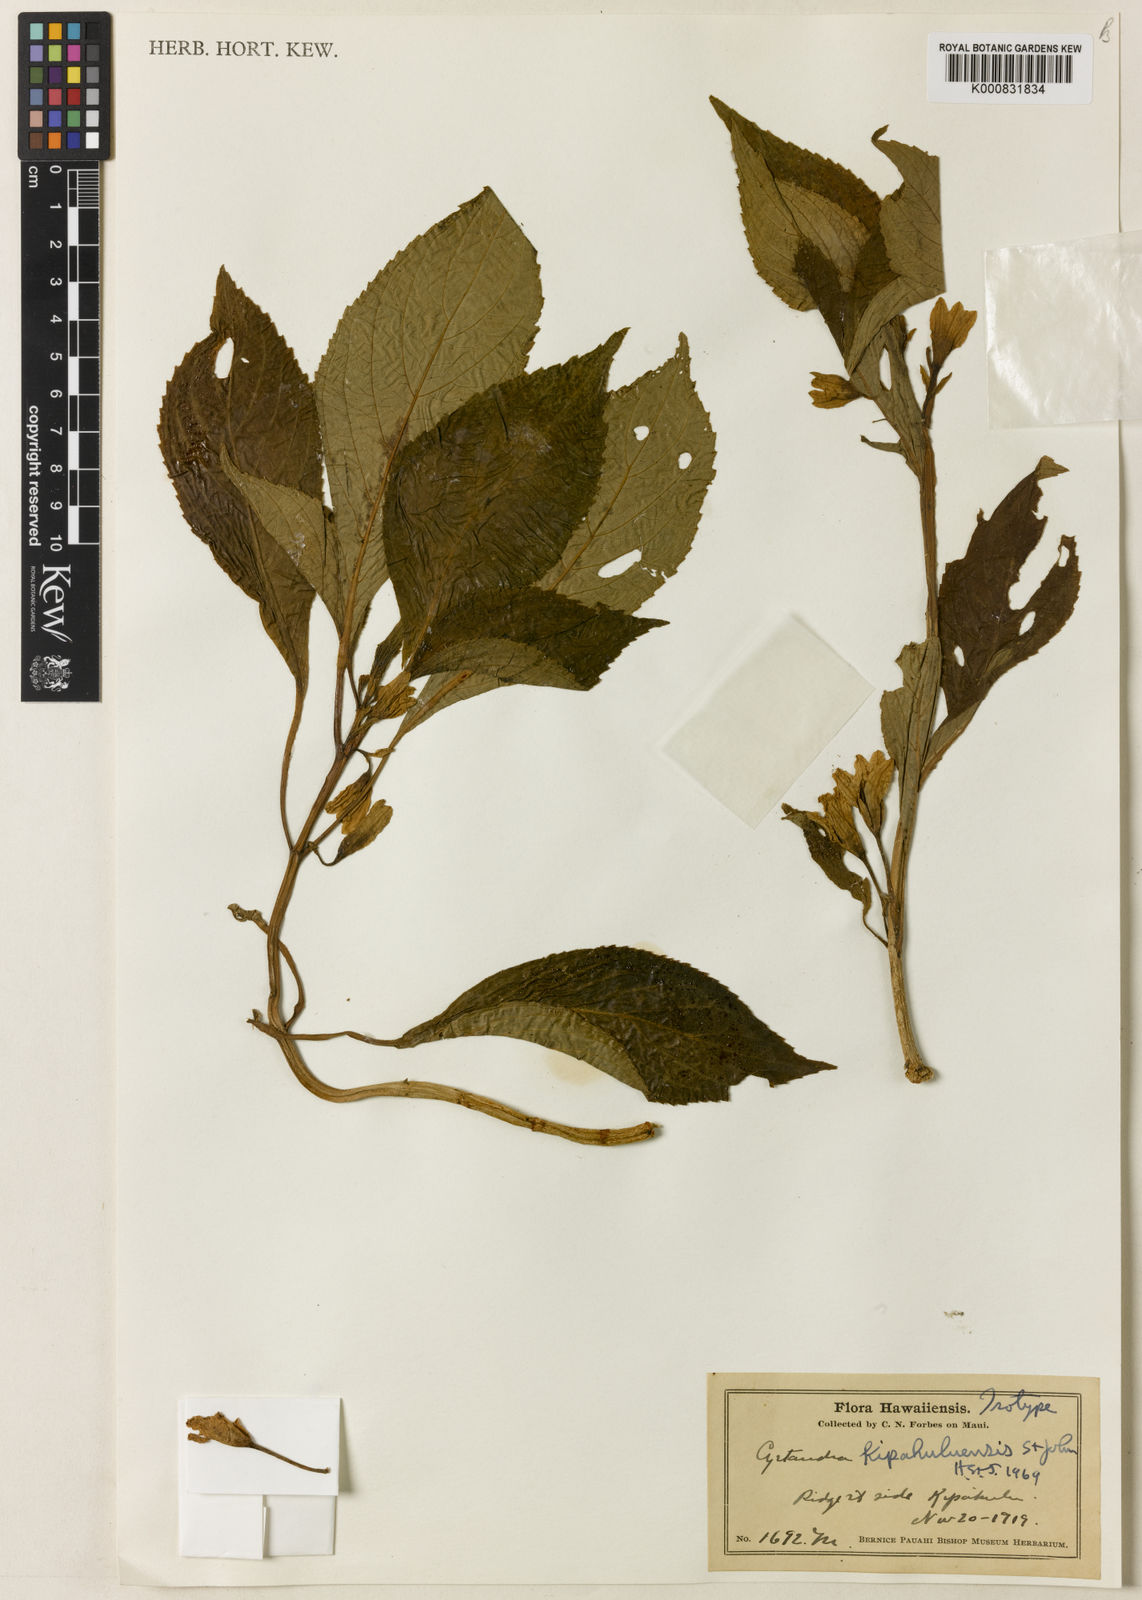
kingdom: Plantae
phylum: Tracheophyta
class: Magnoliopsida
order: Lamiales
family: Gesneriaceae
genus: Cyrtandra
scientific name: Cyrtandra kipahuluensis
